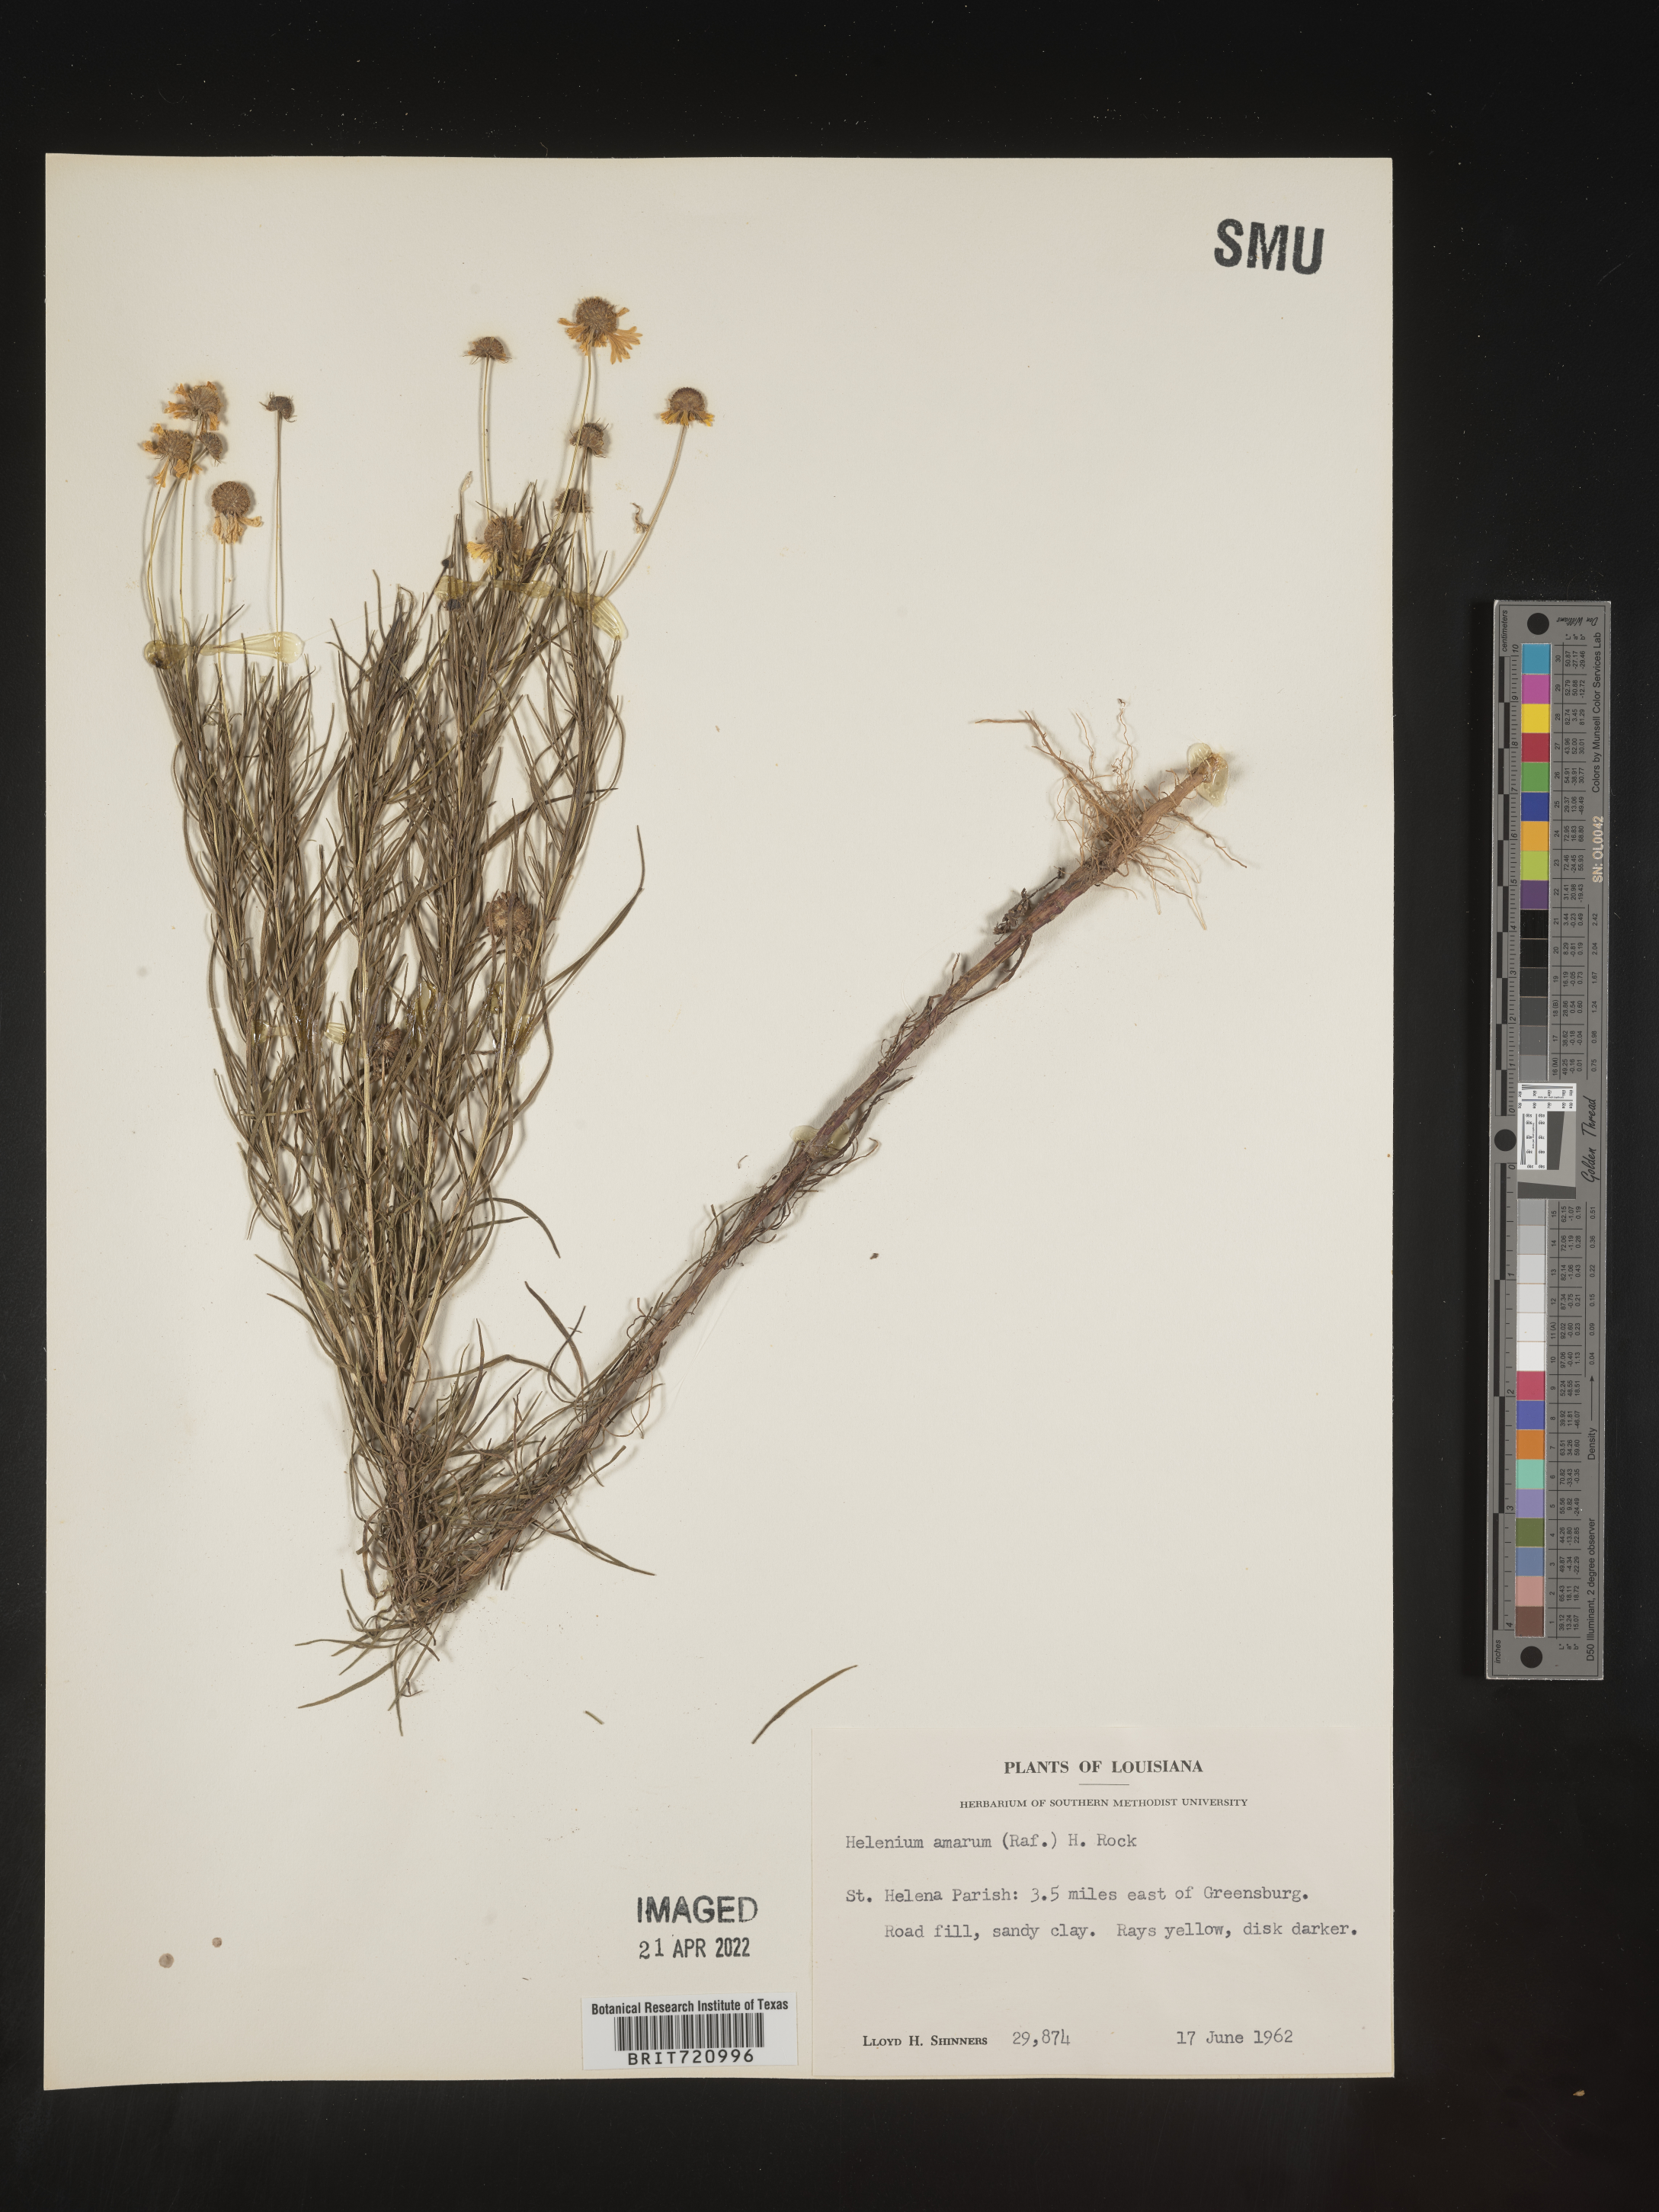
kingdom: Plantae
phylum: Tracheophyta
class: Magnoliopsida
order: Asterales
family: Asteraceae
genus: Helenium
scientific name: Helenium amarum
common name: Bitter sneezeweed
